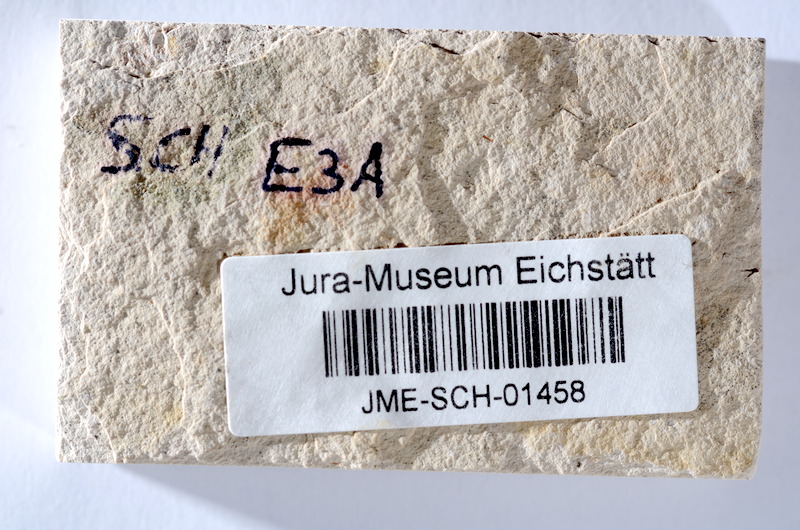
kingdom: Animalia
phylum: Chordata
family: Ascalaboidae
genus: Tharsis
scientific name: Tharsis dubius
